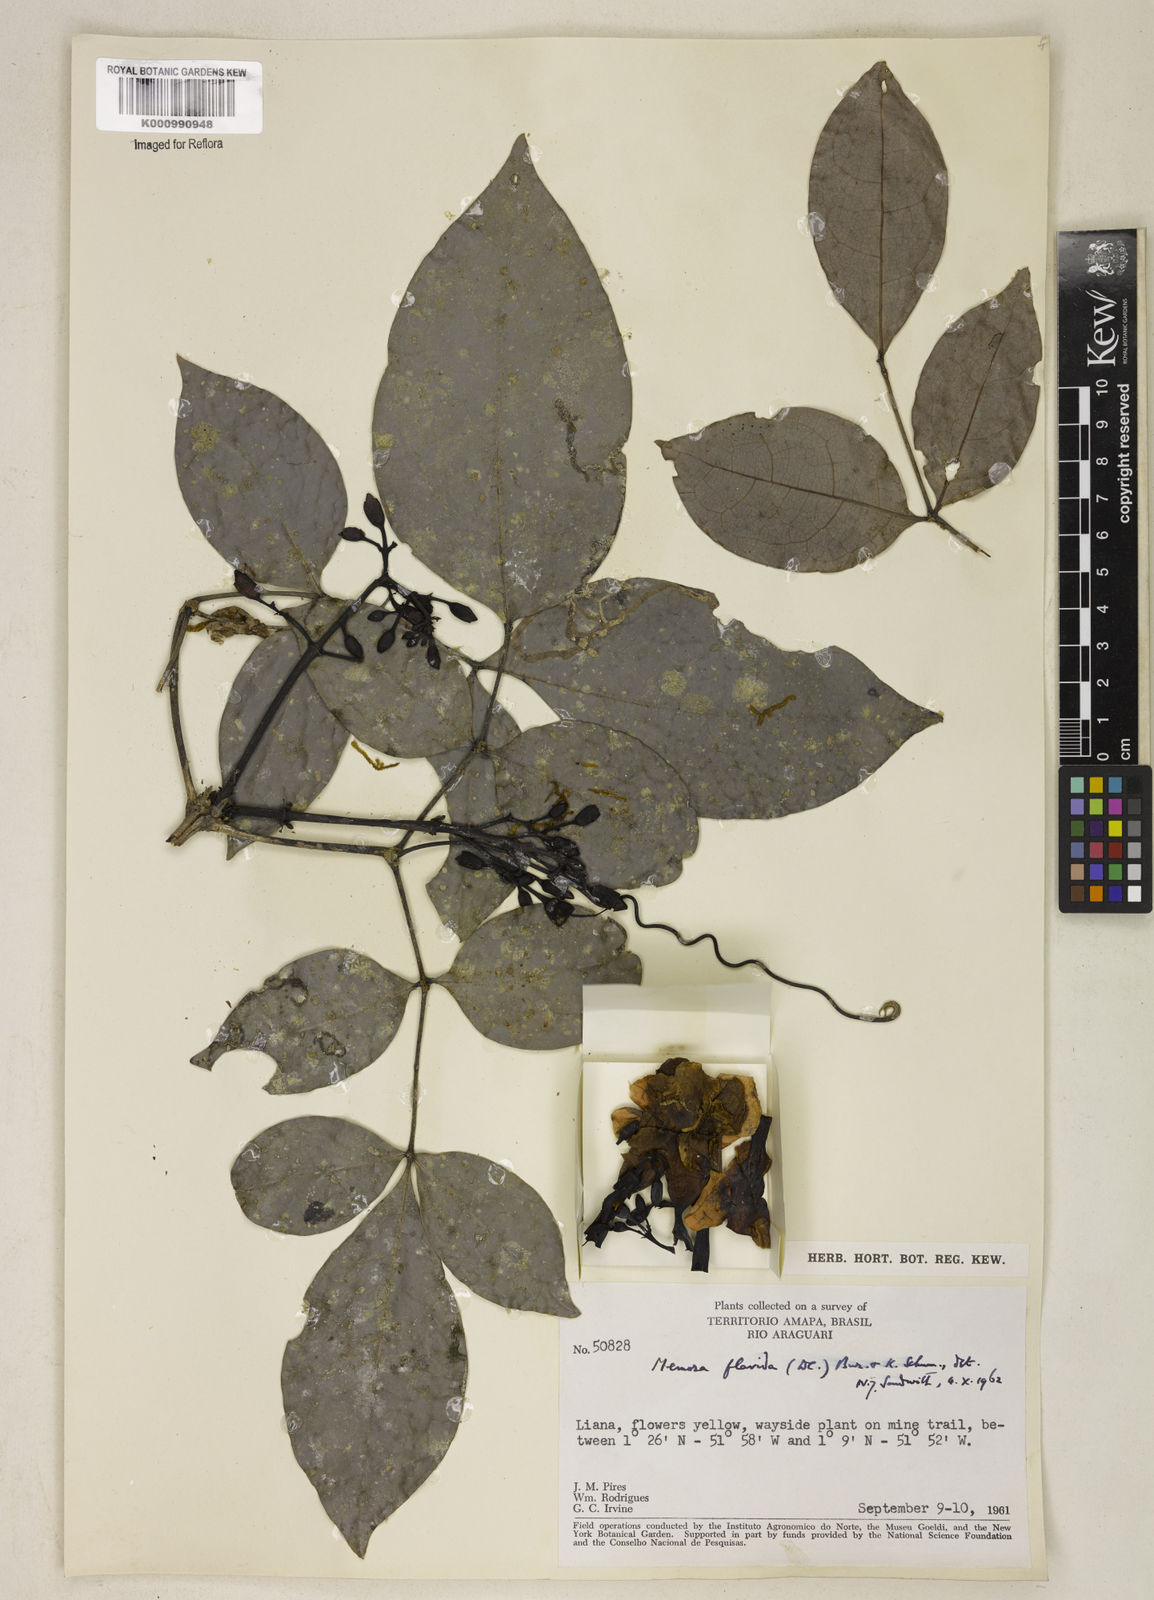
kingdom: Plantae
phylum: Tracheophyta
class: Magnoliopsida
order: Lamiales
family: Bignoniaceae
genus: Adenocalymma
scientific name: Adenocalymma neoflavidum
